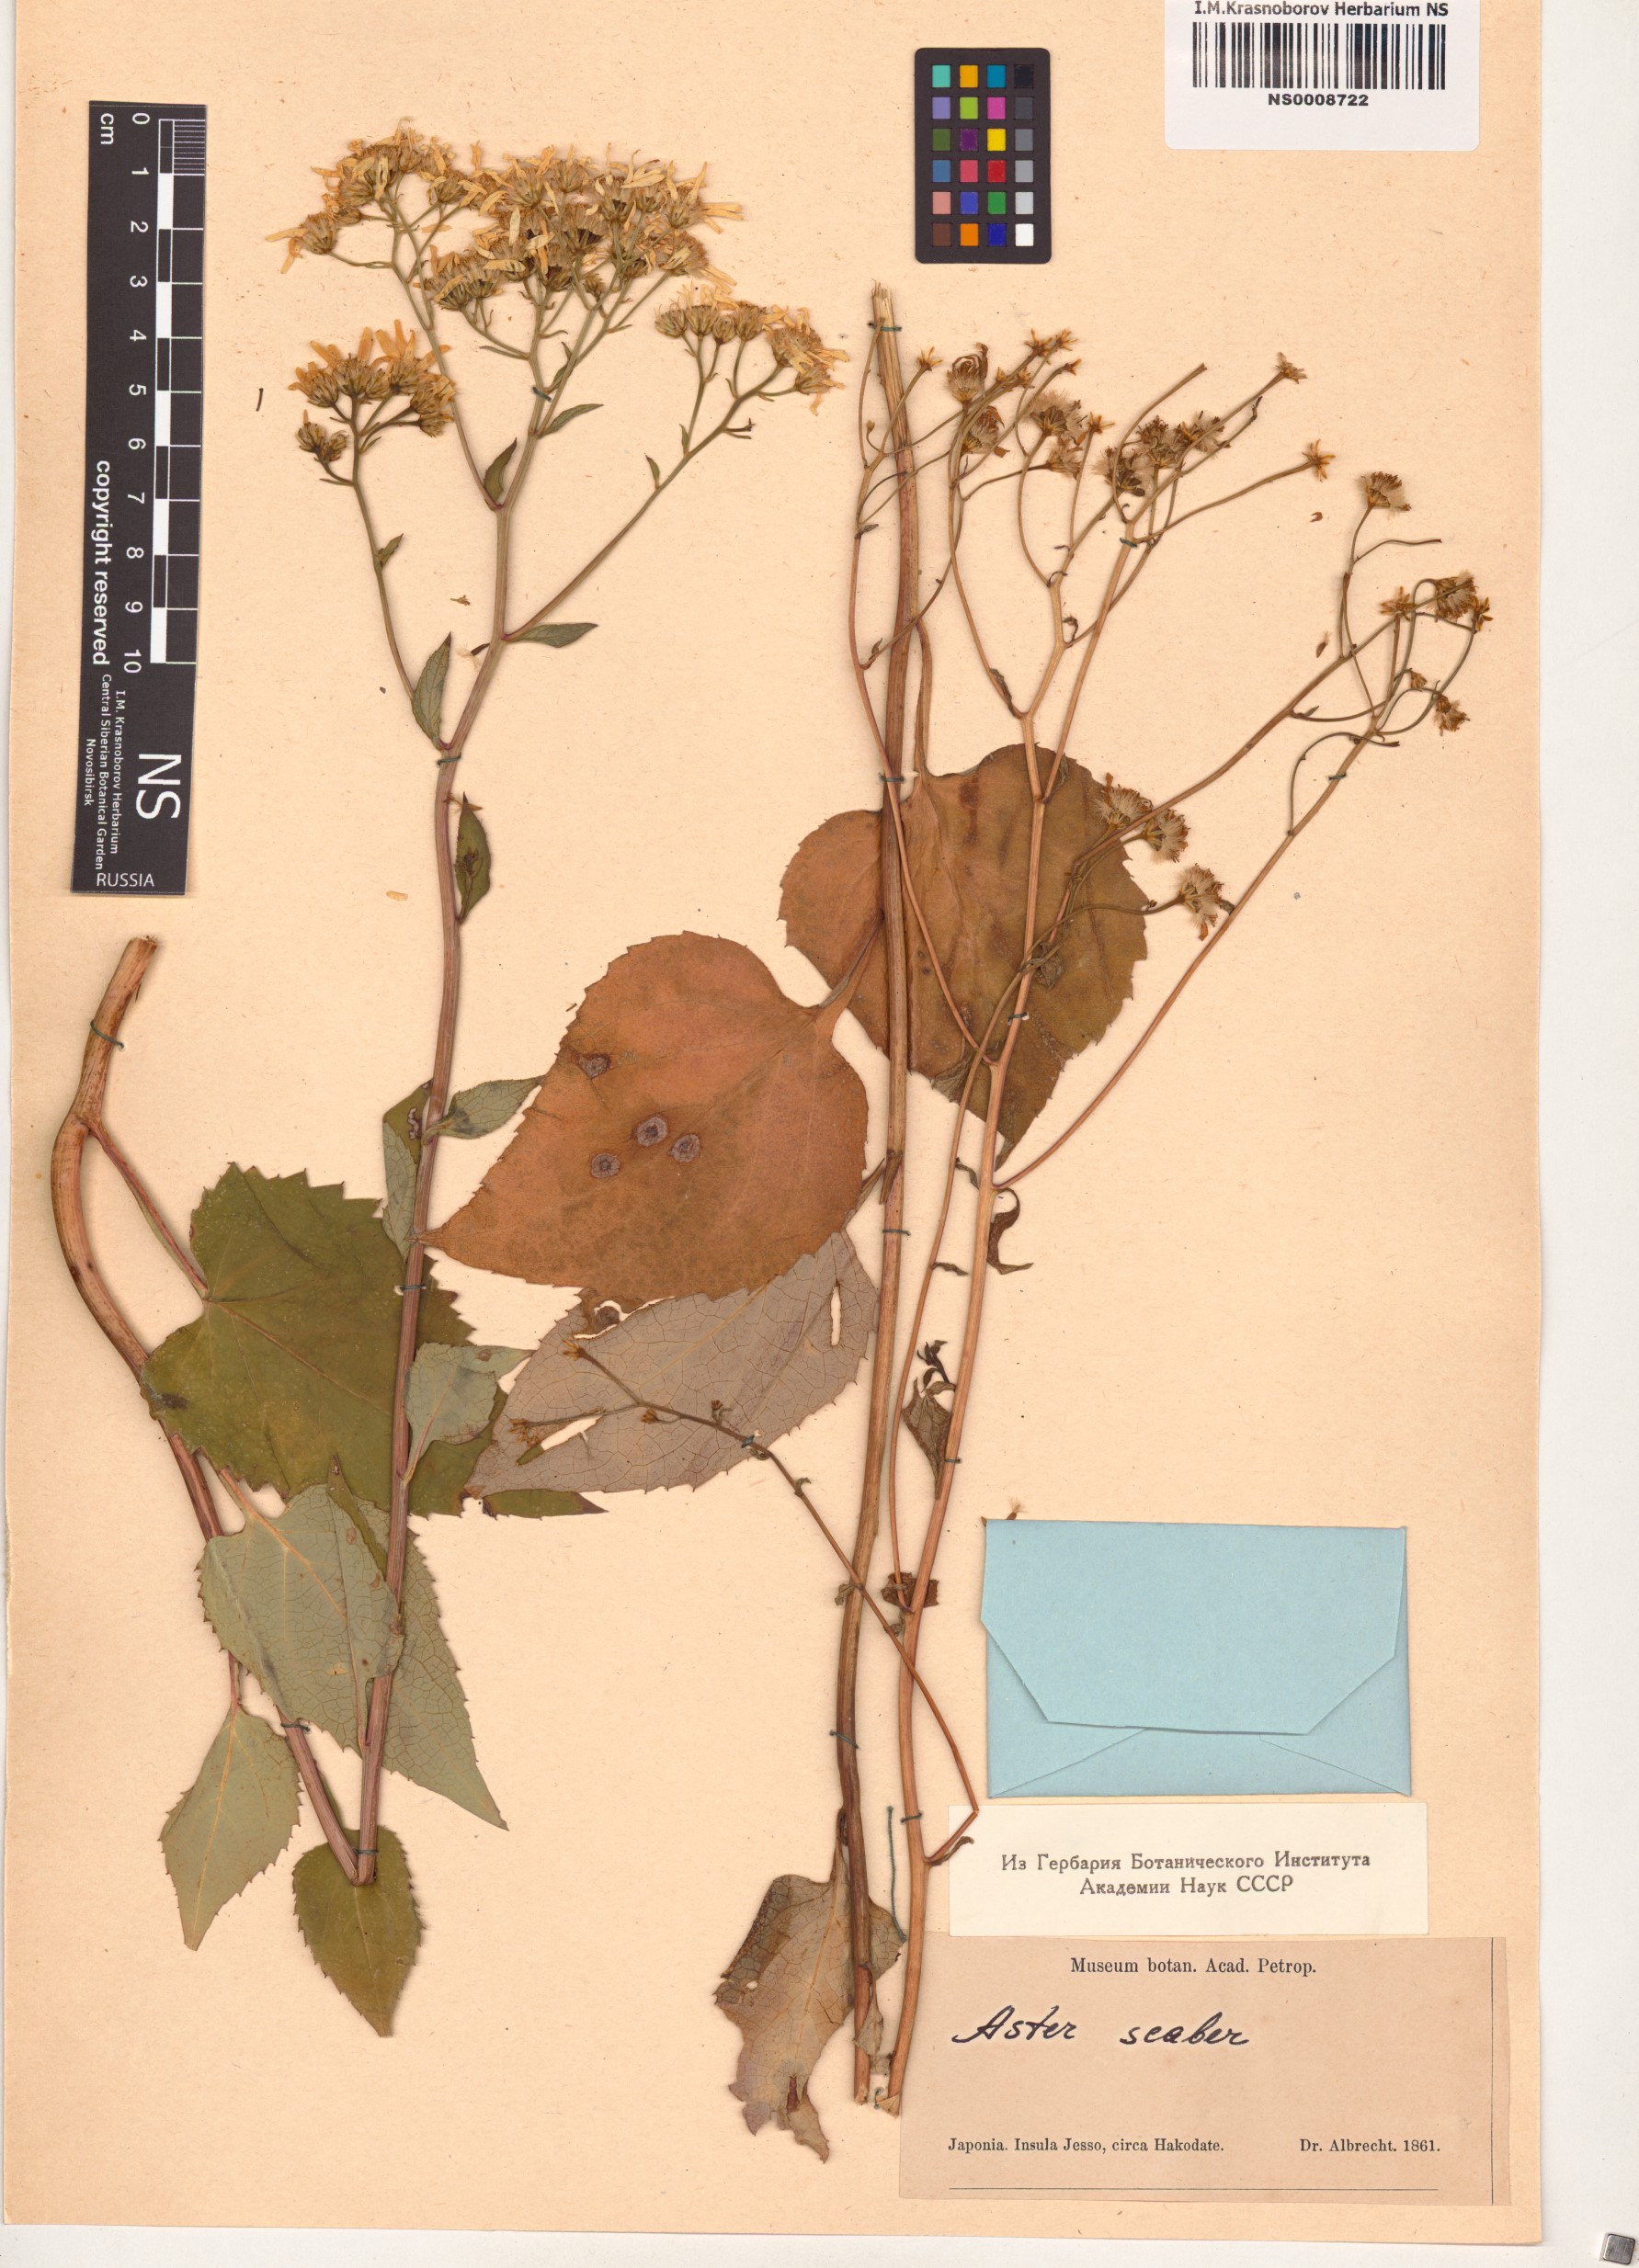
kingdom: Plantae
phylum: Tracheophyta
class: Magnoliopsida
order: Asterales
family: Asteraceae
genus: Cardiagyris
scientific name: Cardiagyris scabra
